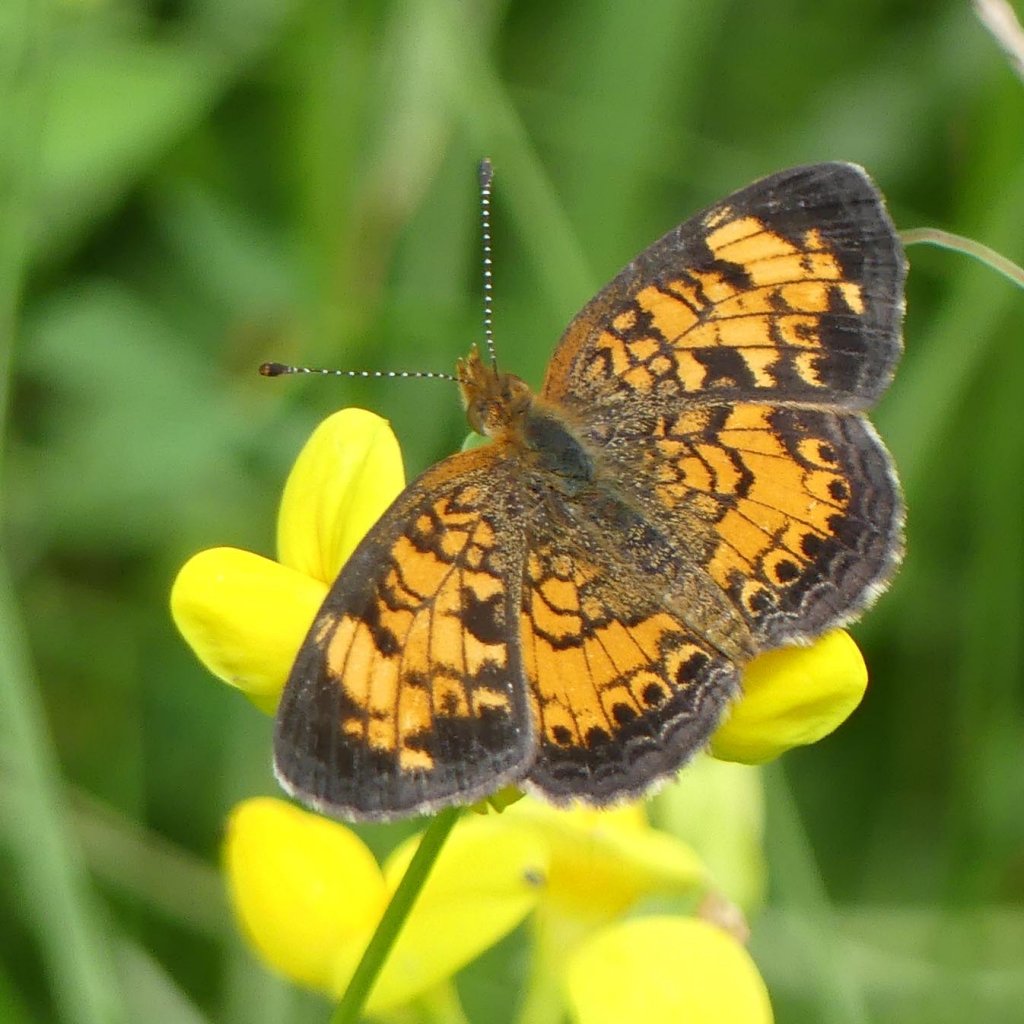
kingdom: Animalia
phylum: Arthropoda
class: Insecta
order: Lepidoptera
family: Nymphalidae
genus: Phyciodes
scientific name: Phyciodes tharos
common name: Pearl Crescent
